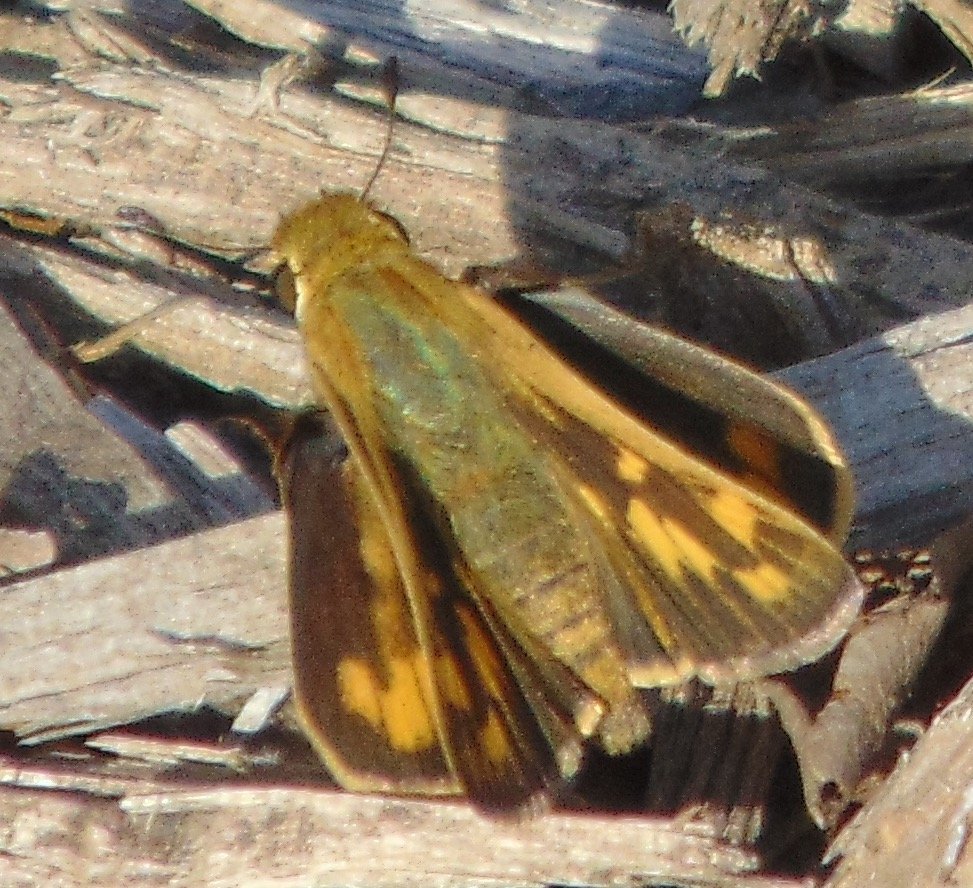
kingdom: Animalia
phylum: Arthropoda
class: Insecta
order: Lepidoptera
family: Hesperiidae
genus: Hylephila
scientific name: Hylephila phyleus
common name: Fiery Skipper
